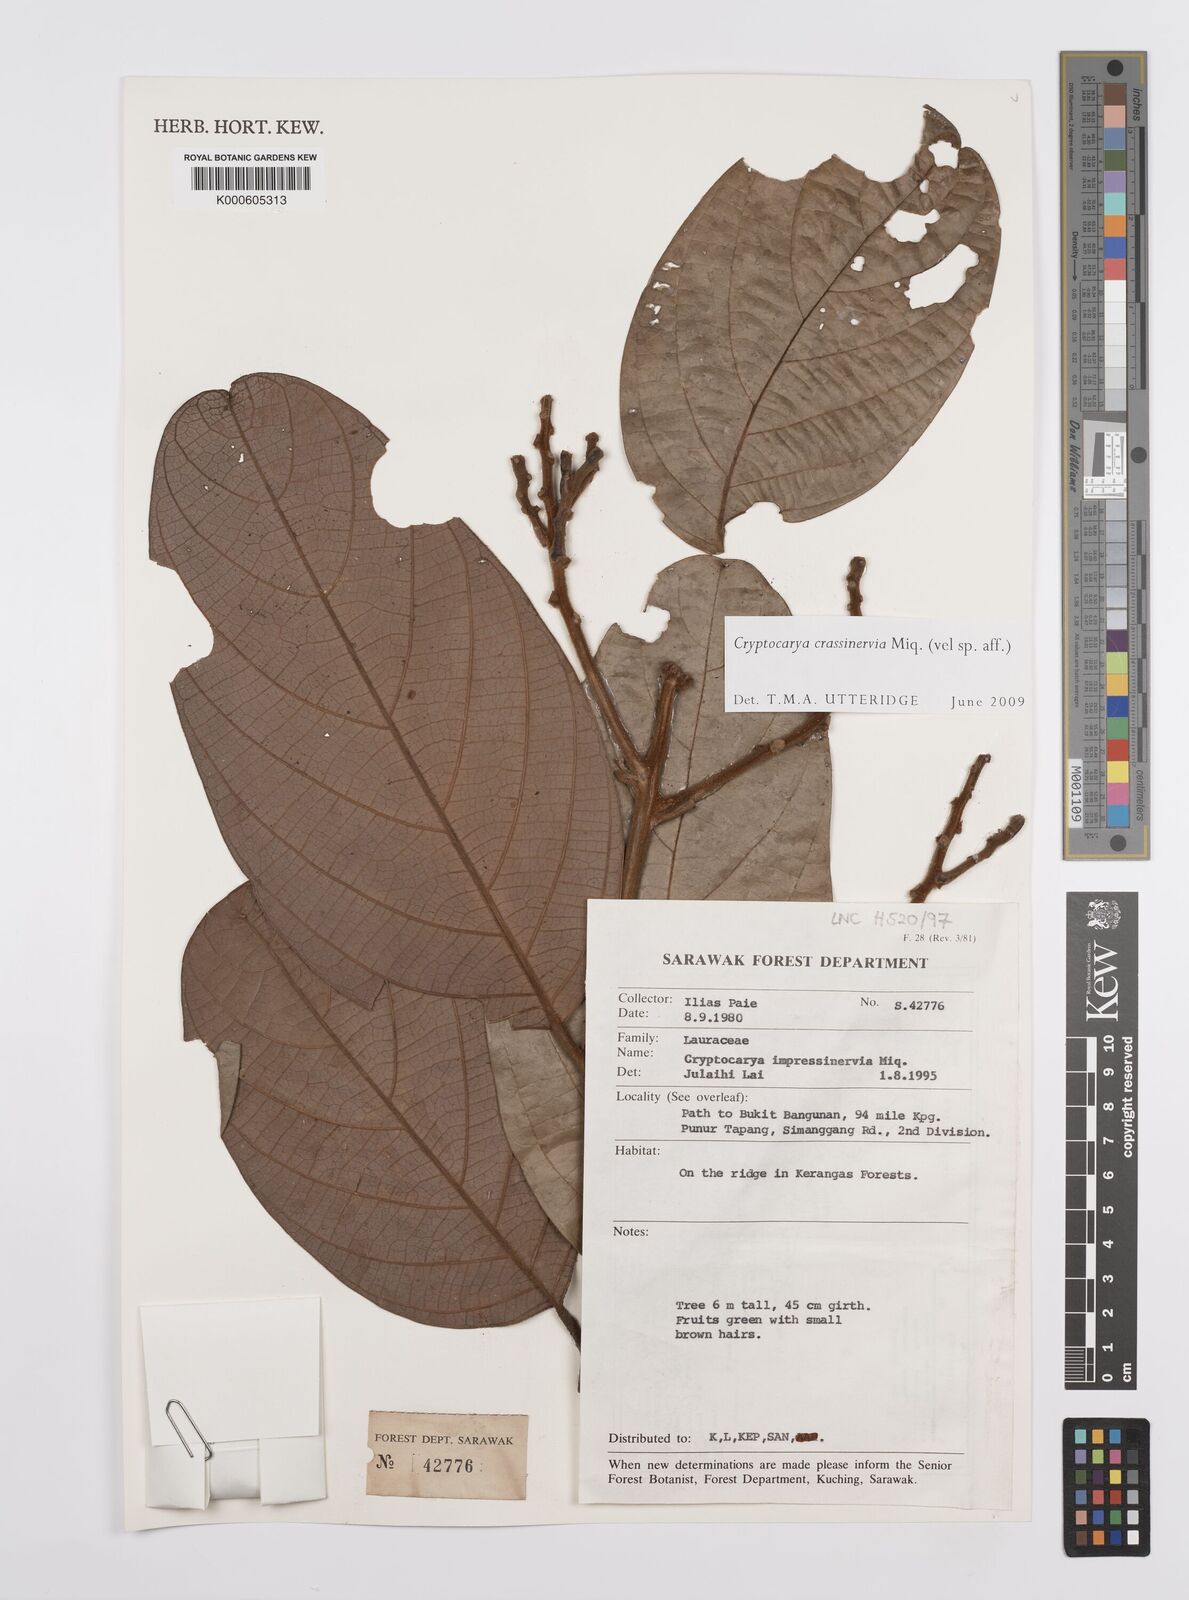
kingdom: Plantae
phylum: Tracheophyta
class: Magnoliopsida
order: Laurales
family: Lauraceae
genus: Cryptocarya
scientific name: Cryptocarya diversifolia
